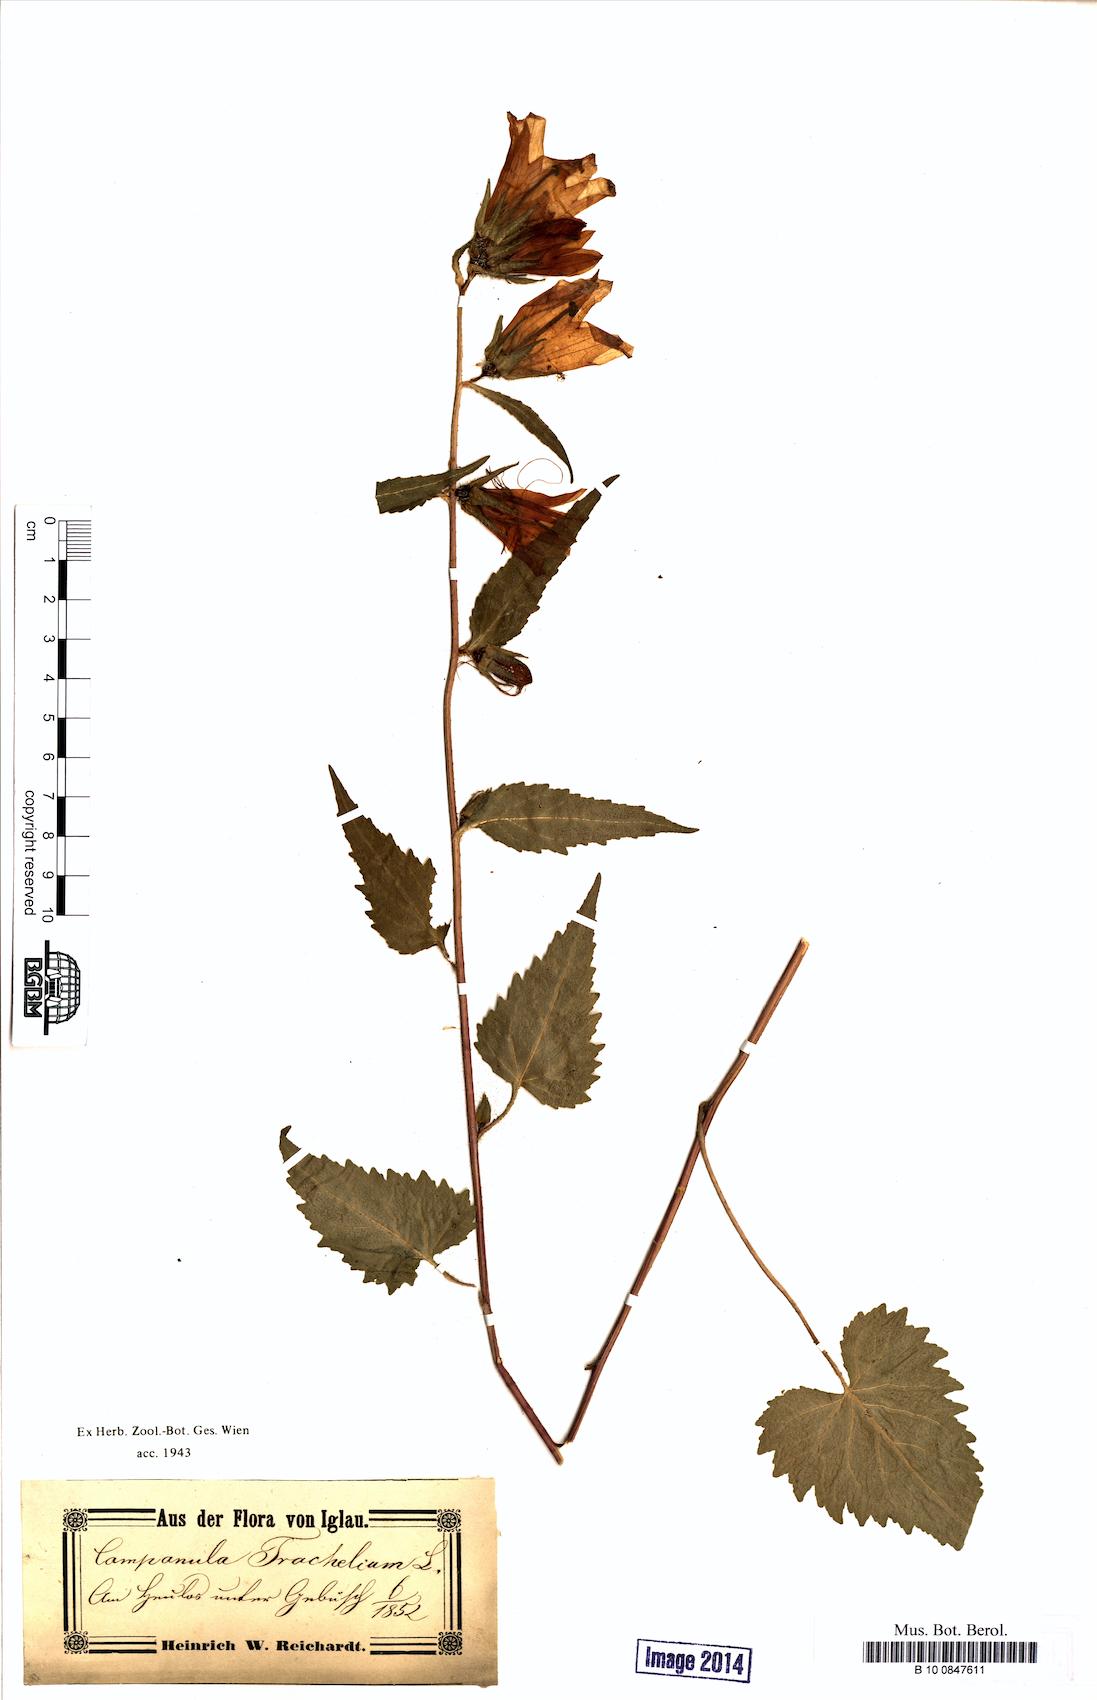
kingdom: Plantae
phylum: Tracheophyta
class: Magnoliopsida
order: Asterales
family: Campanulaceae
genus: Campanula
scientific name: Campanula trachelium
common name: Nettle-leaved bellflower
